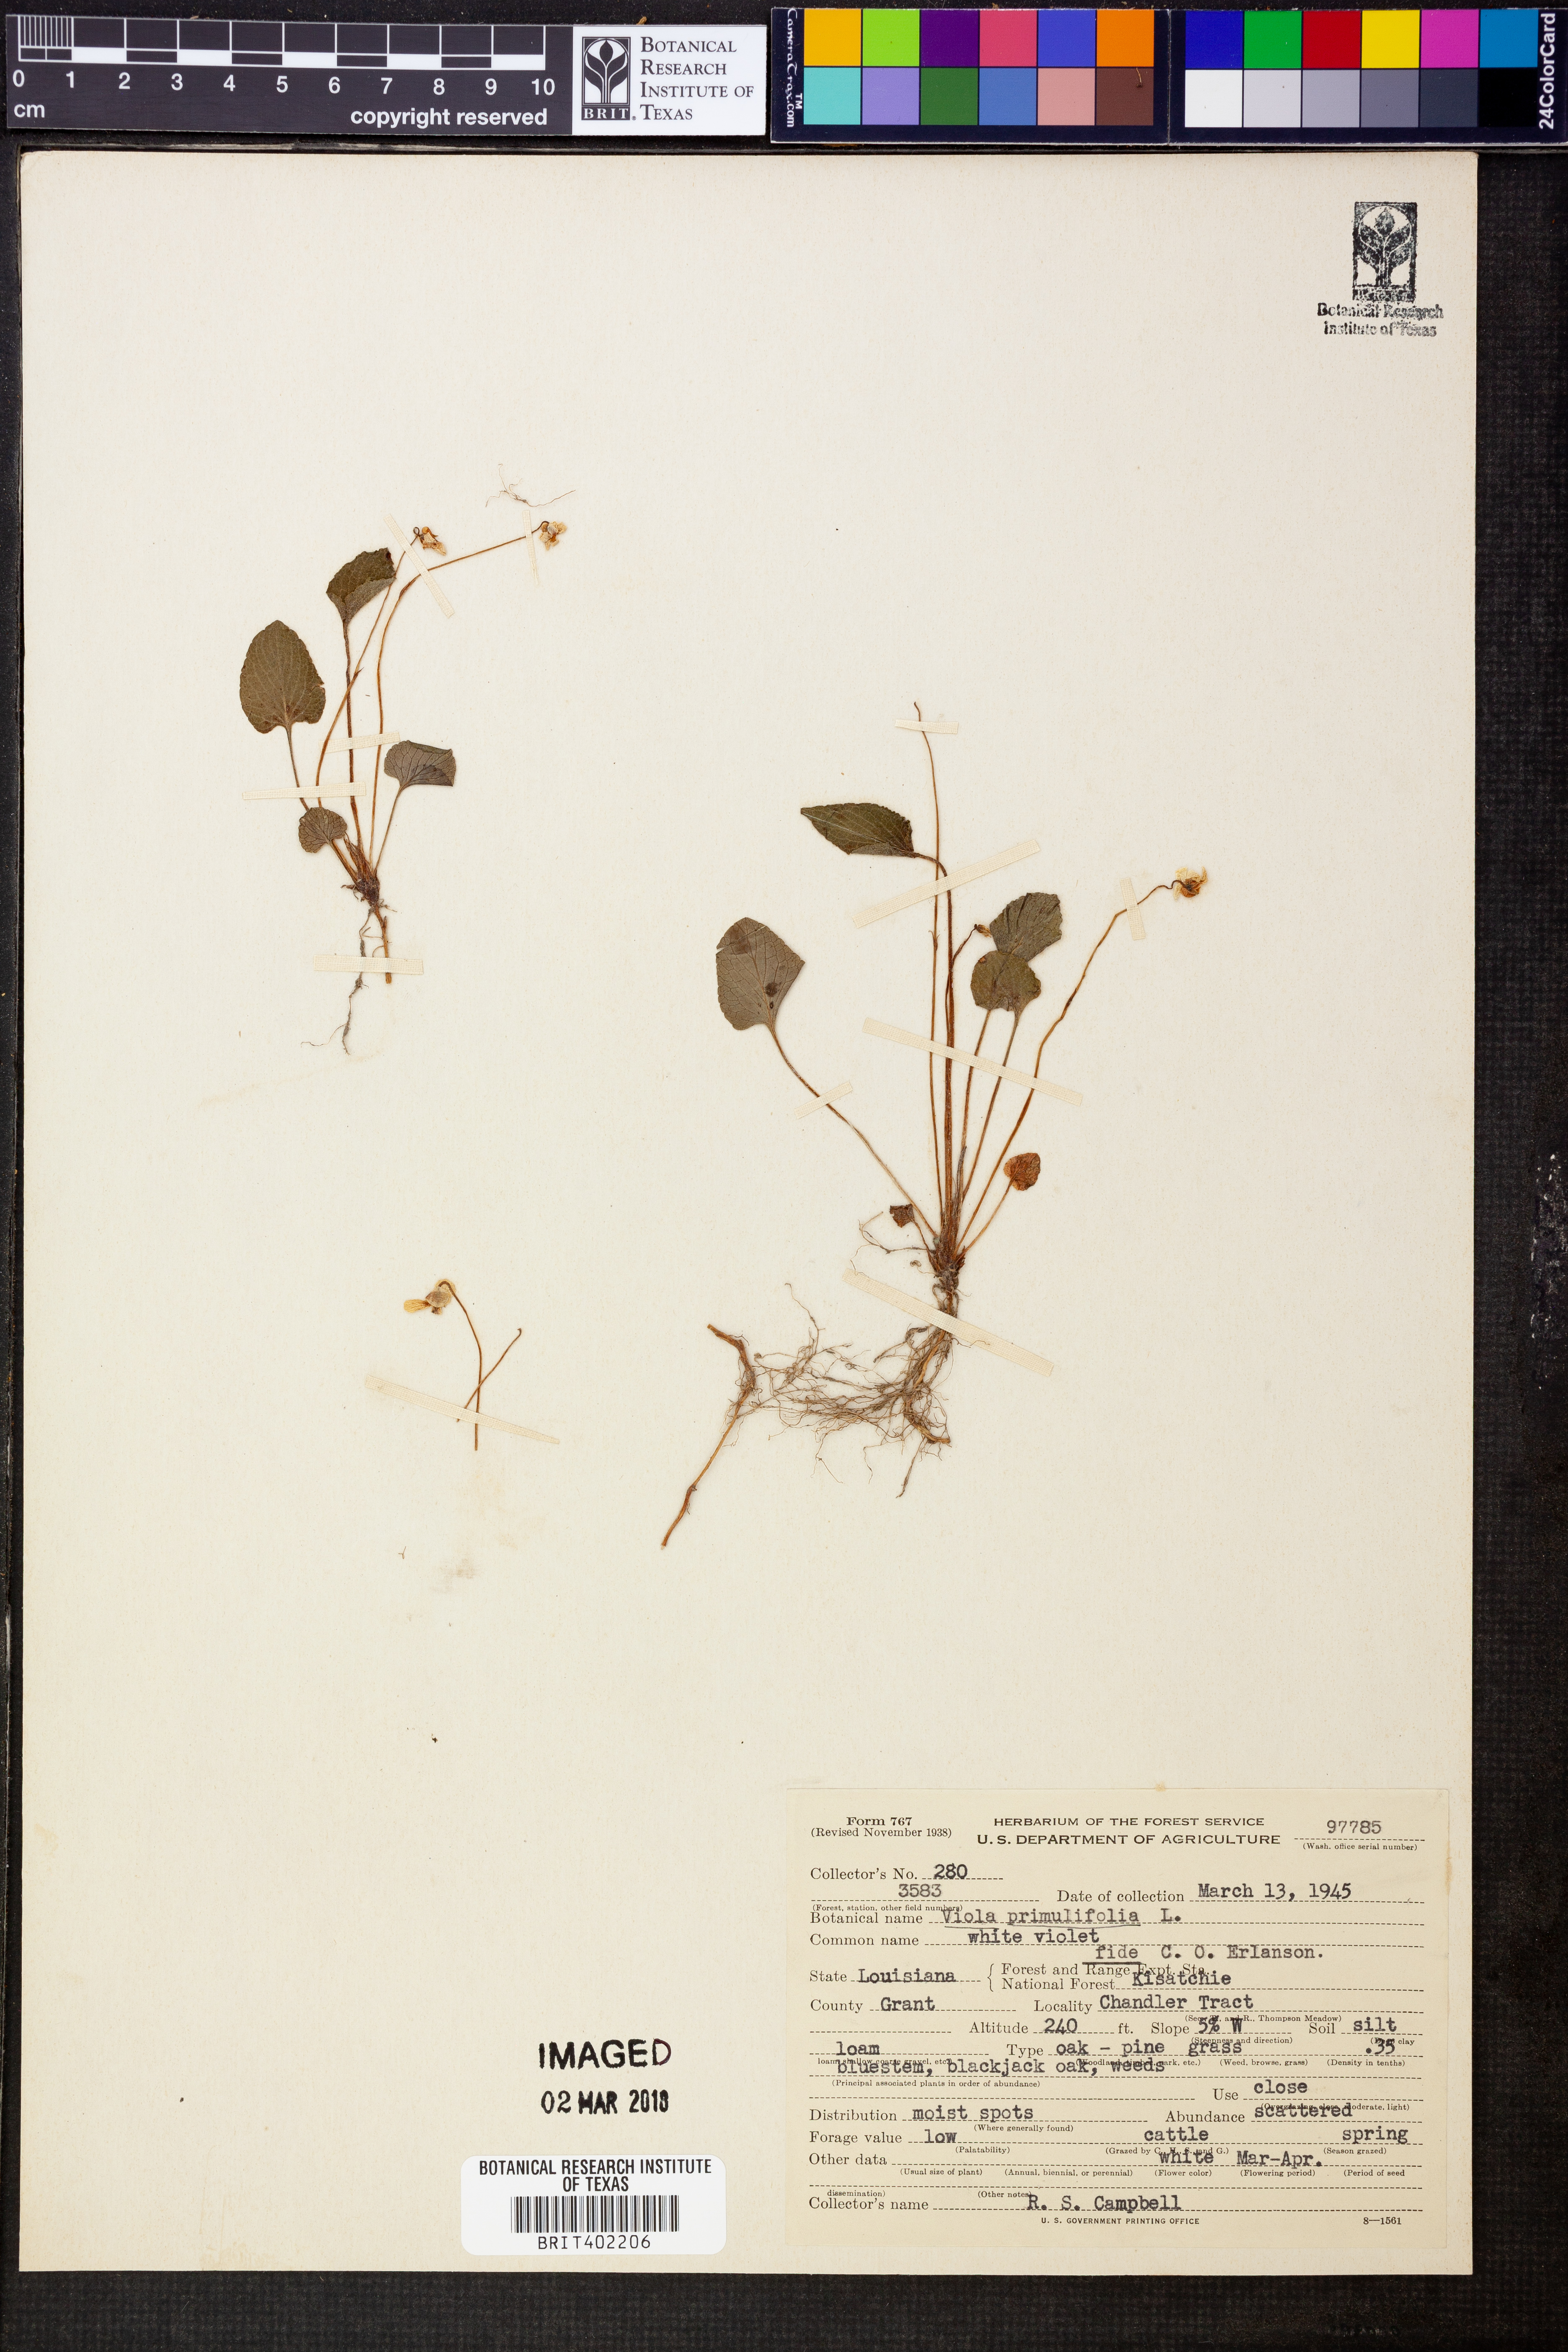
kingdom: Plantae
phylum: Tracheophyta
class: Magnoliopsida
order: Malpighiales
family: Violaceae
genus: Viola
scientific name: Viola primulifolia
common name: Primrose-leaf violet
